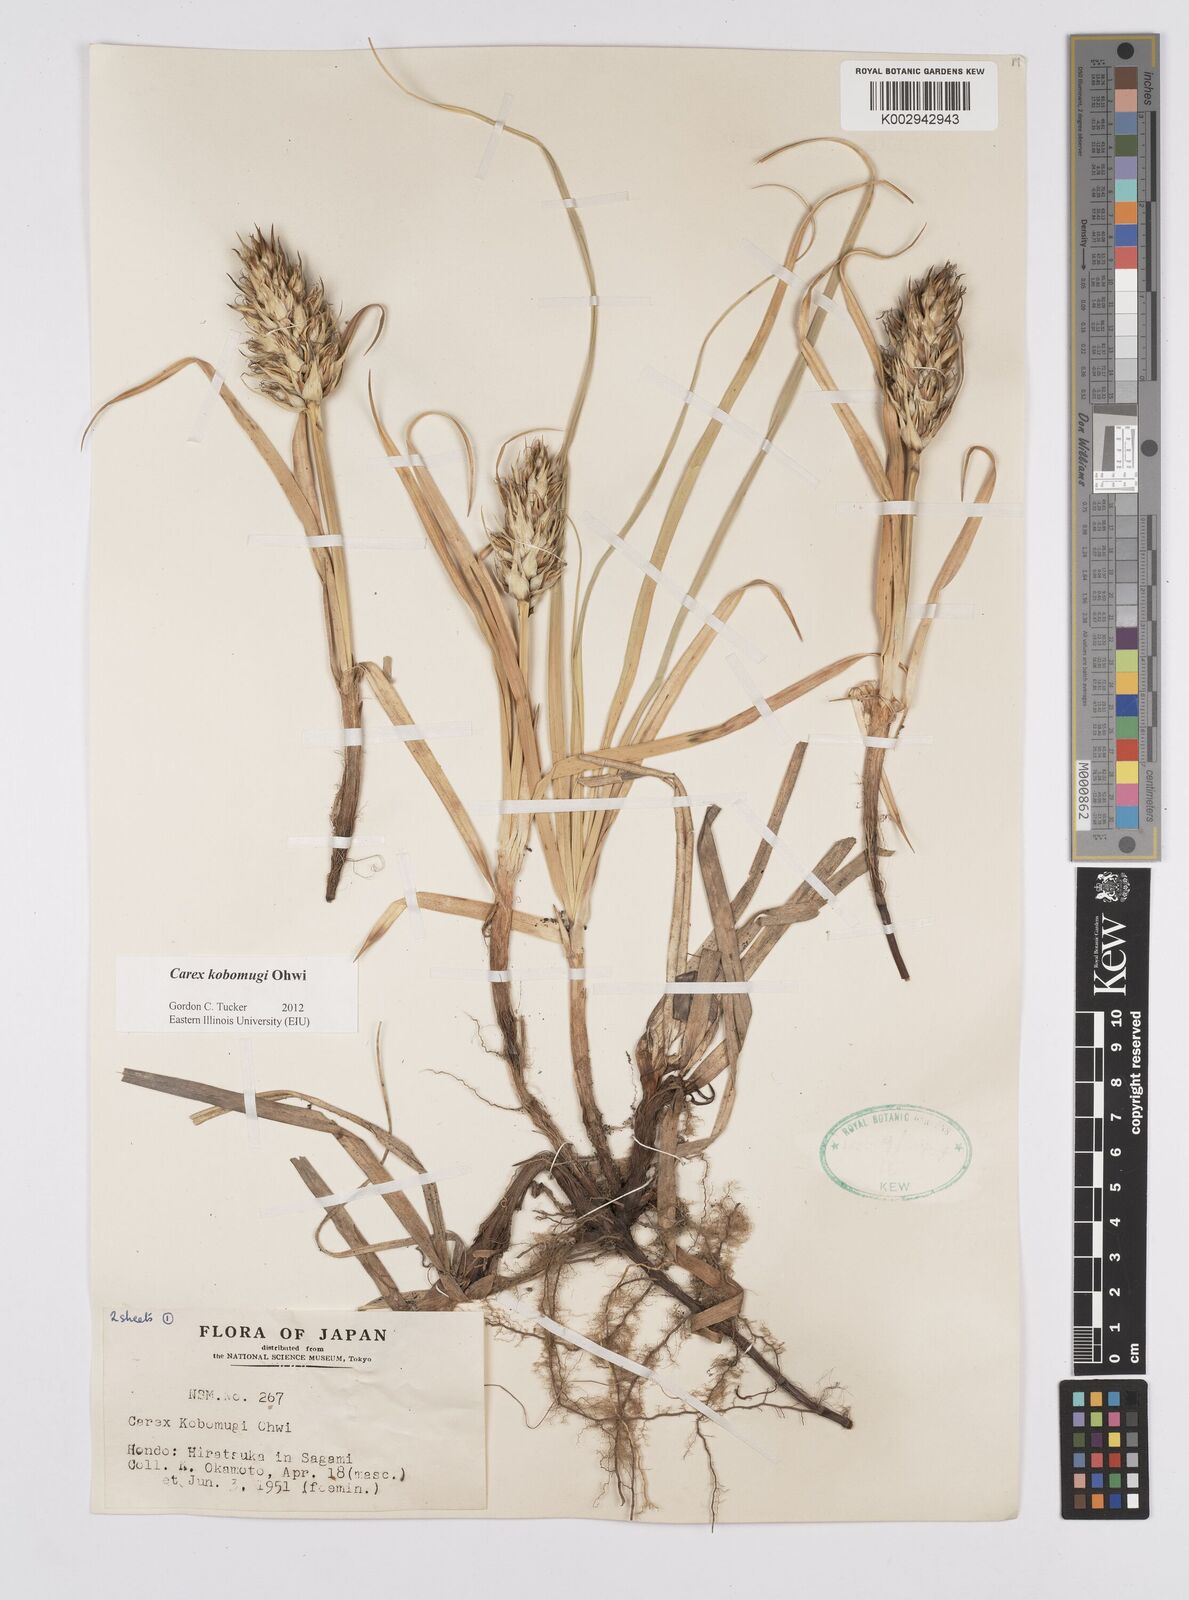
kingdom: Plantae
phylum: Tracheophyta
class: Liliopsida
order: Poales
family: Cyperaceae
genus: Carex
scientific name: Carex kobomugi
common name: Japanese sedge
